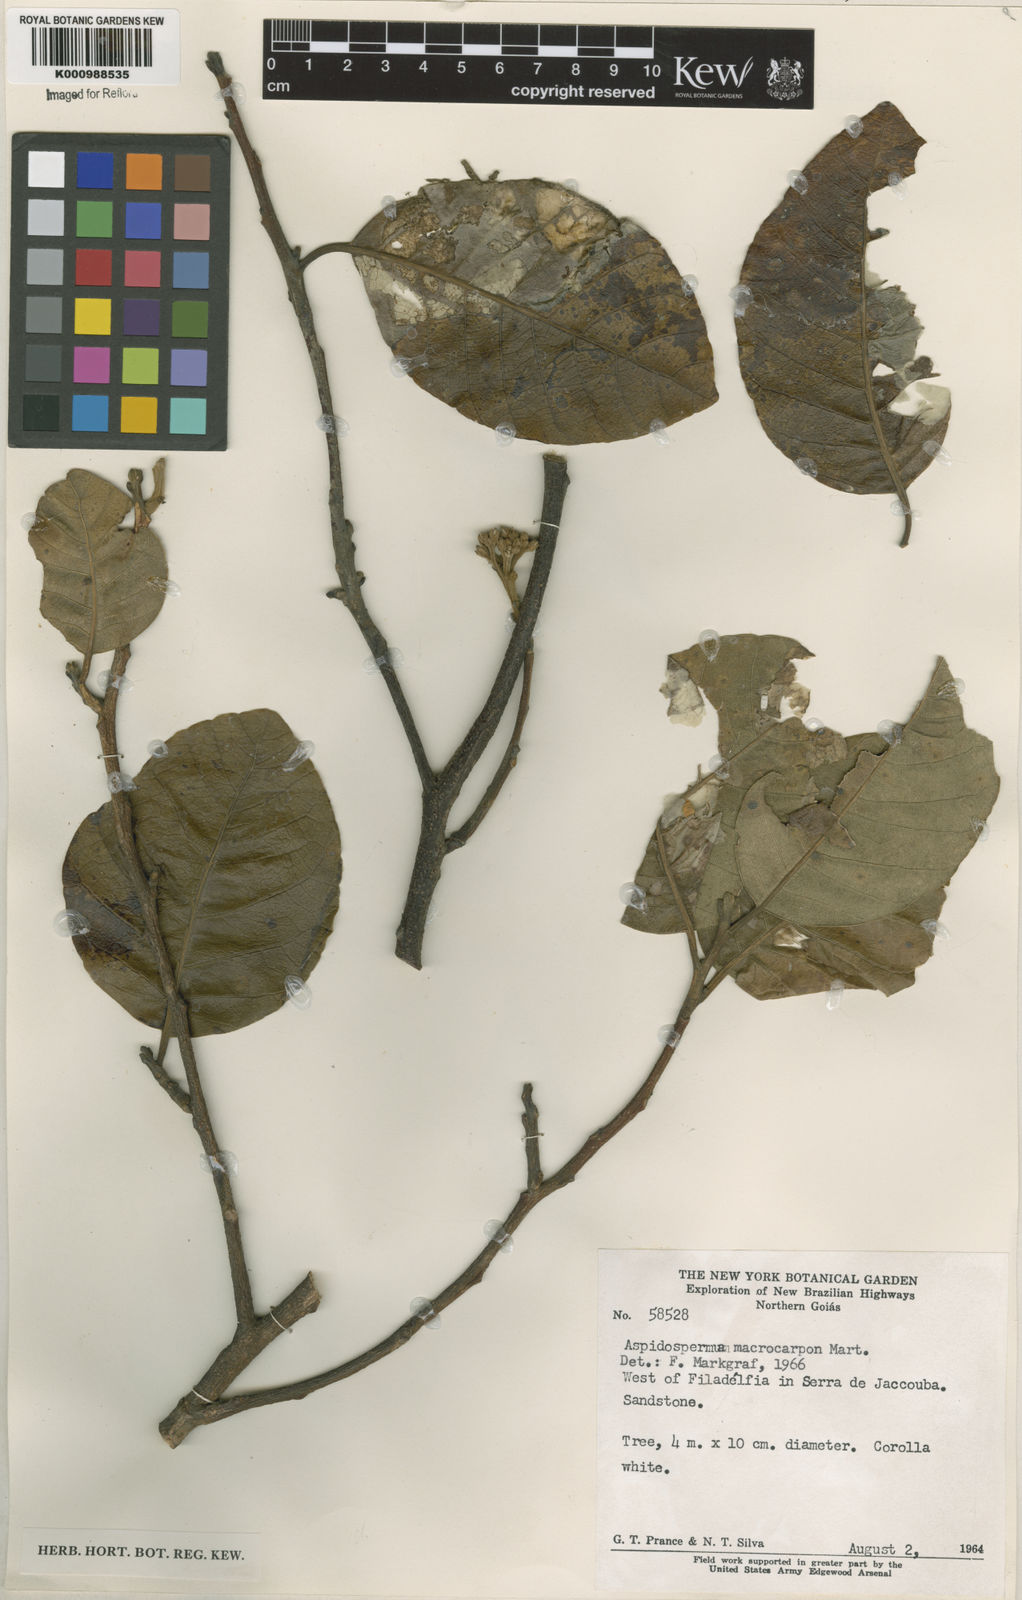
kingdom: Plantae
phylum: Tracheophyta
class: Magnoliopsida
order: Gentianales
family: Apocynaceae
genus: Aspidosperma
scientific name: Aspidosperma macrocarpon
